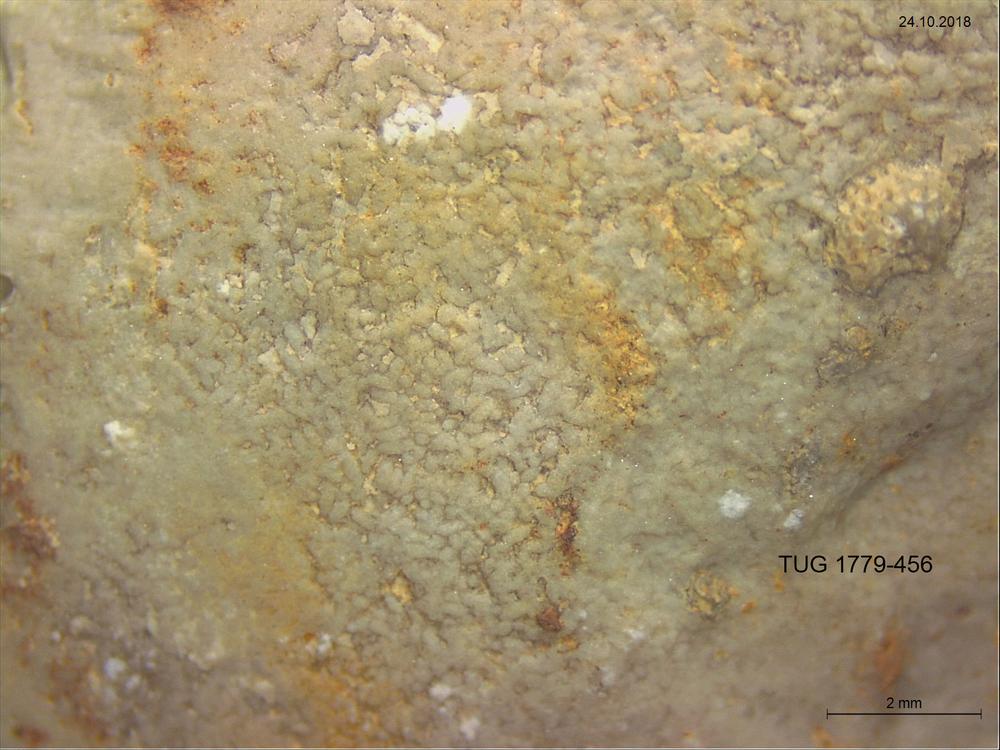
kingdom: Animalia
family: Coprulidae
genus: Coprulus
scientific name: Coprulus
